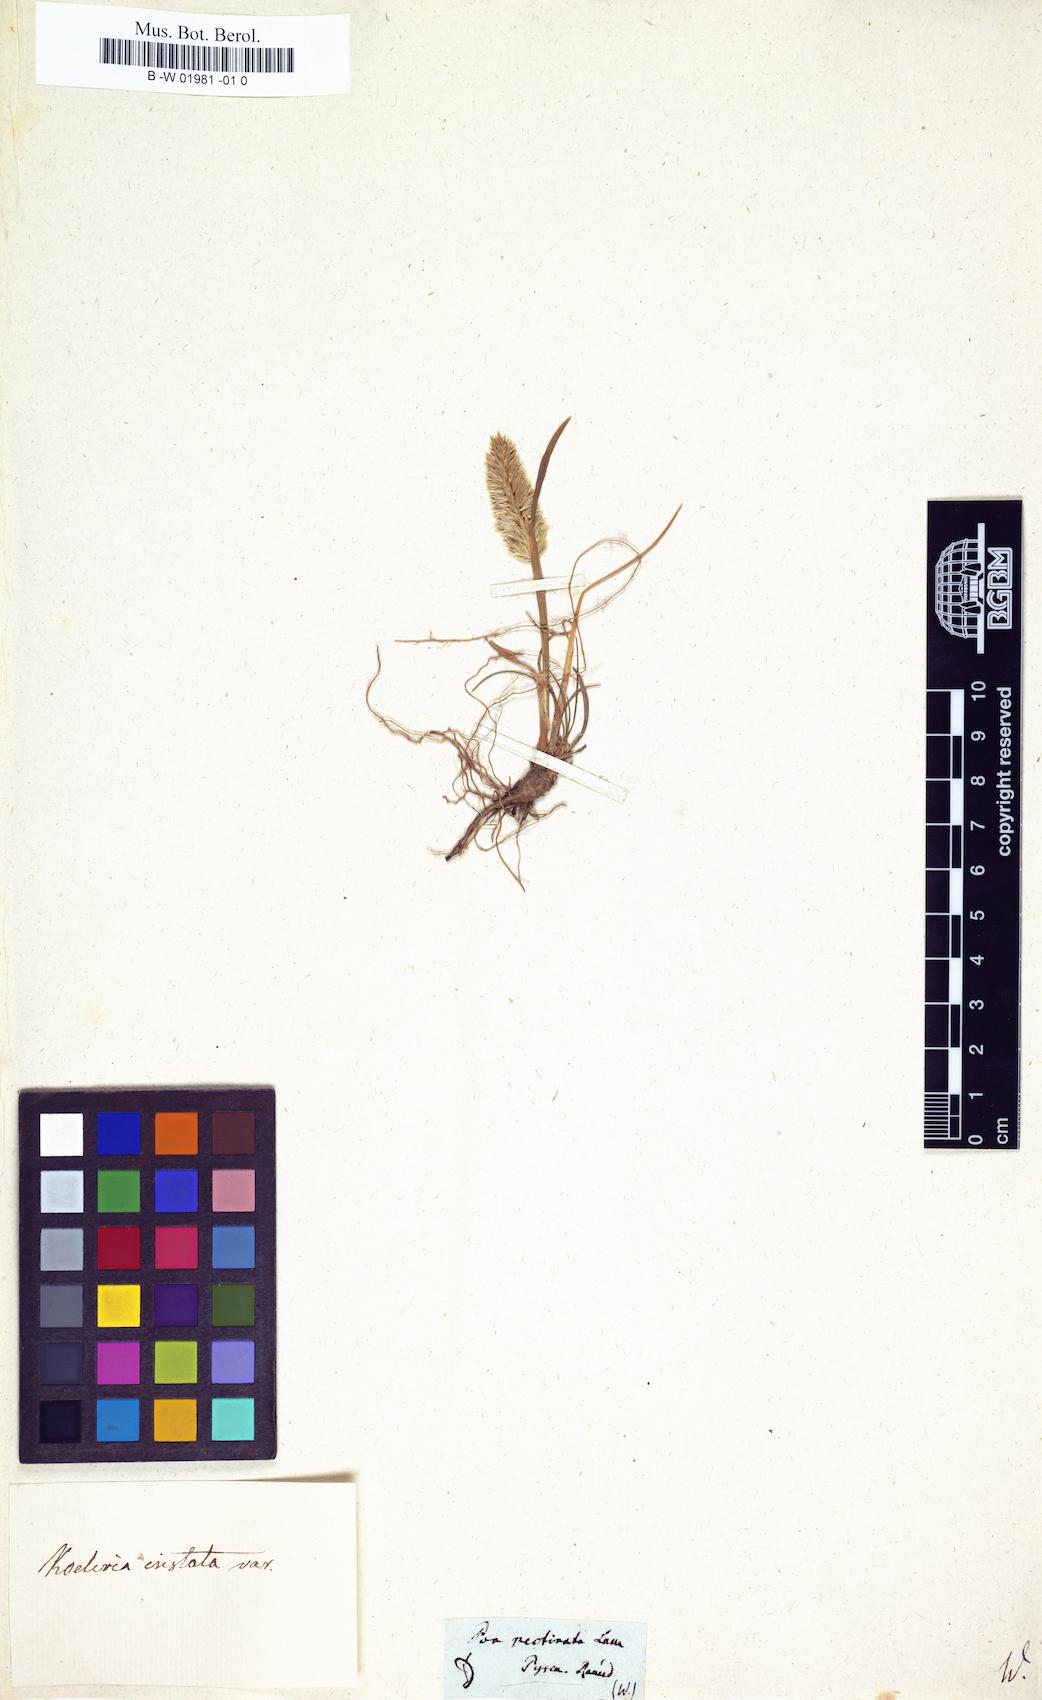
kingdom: Plantae
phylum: Tracheophyta
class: Liliopsida
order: Poales
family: Poaceae
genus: Koeleria
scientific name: Koeleria vallesiana
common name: Somerset hair-grass
